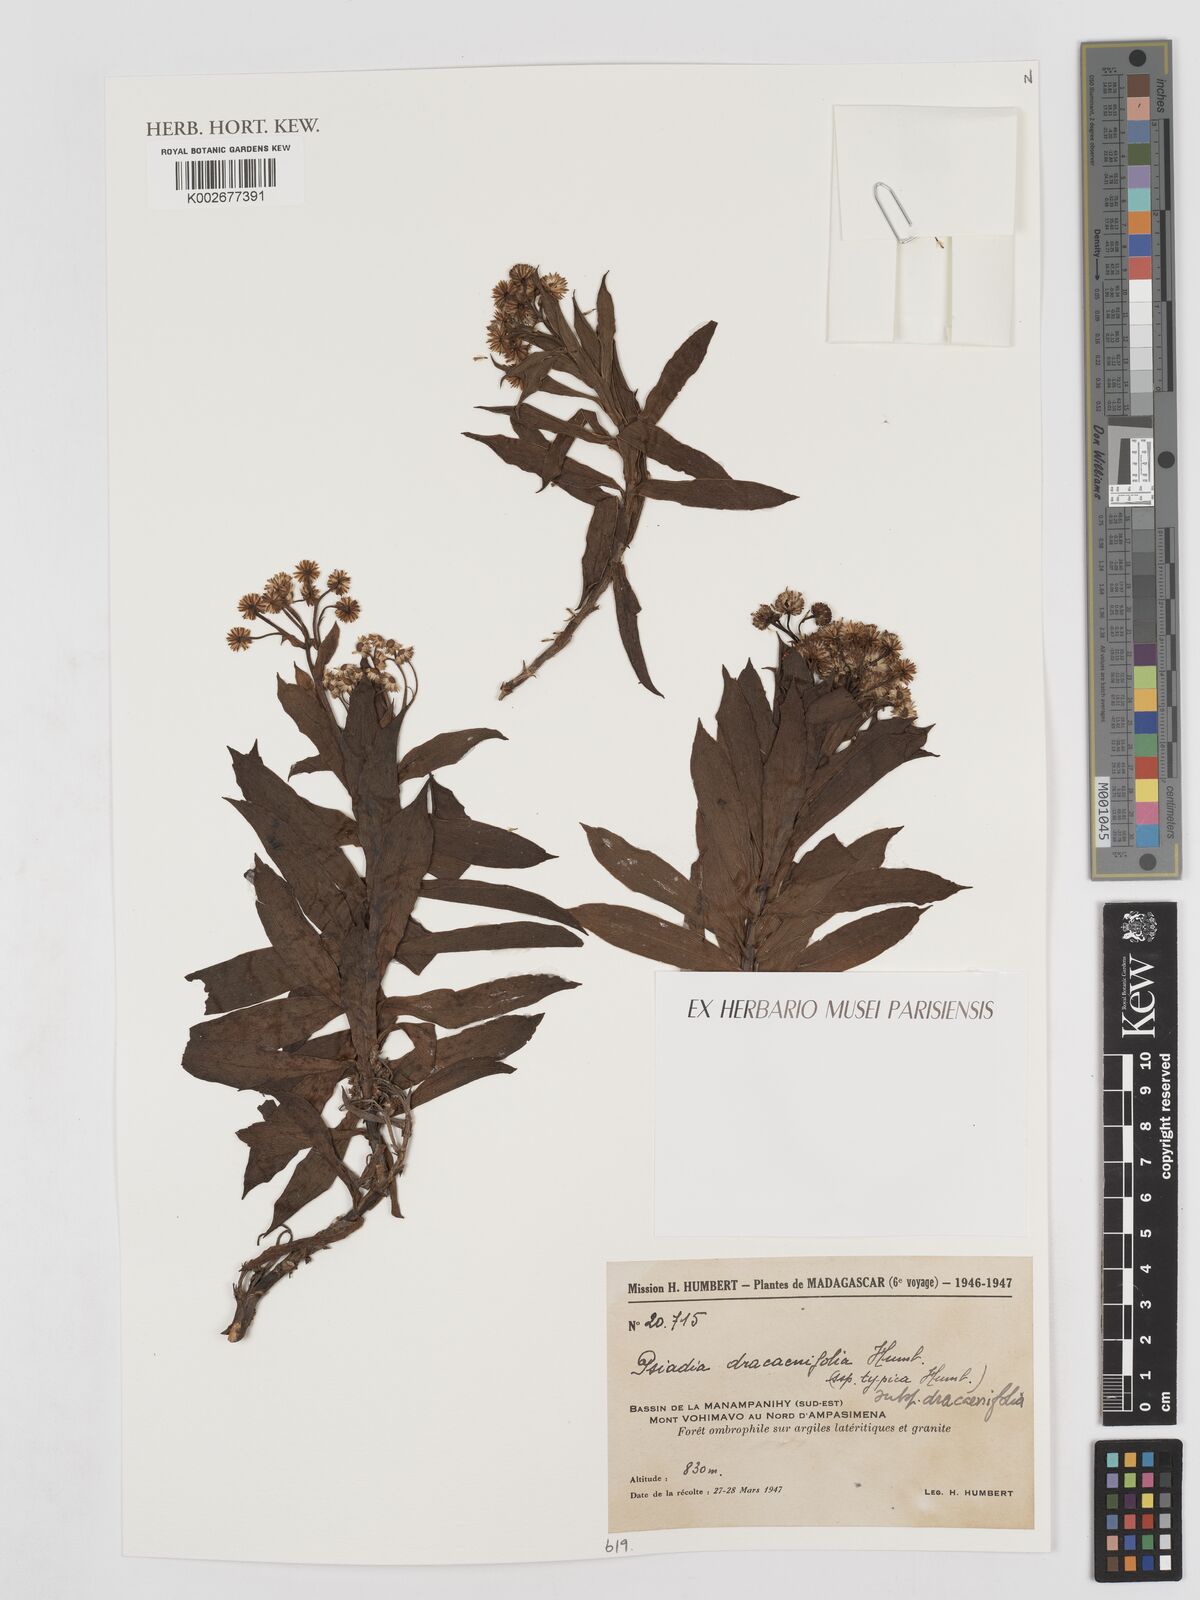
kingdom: Plantae
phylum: Tracheophyta
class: Magnoliopsida
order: Asterales
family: Asteraceae
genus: Psiadia
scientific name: Psiadia dracaenifolia
